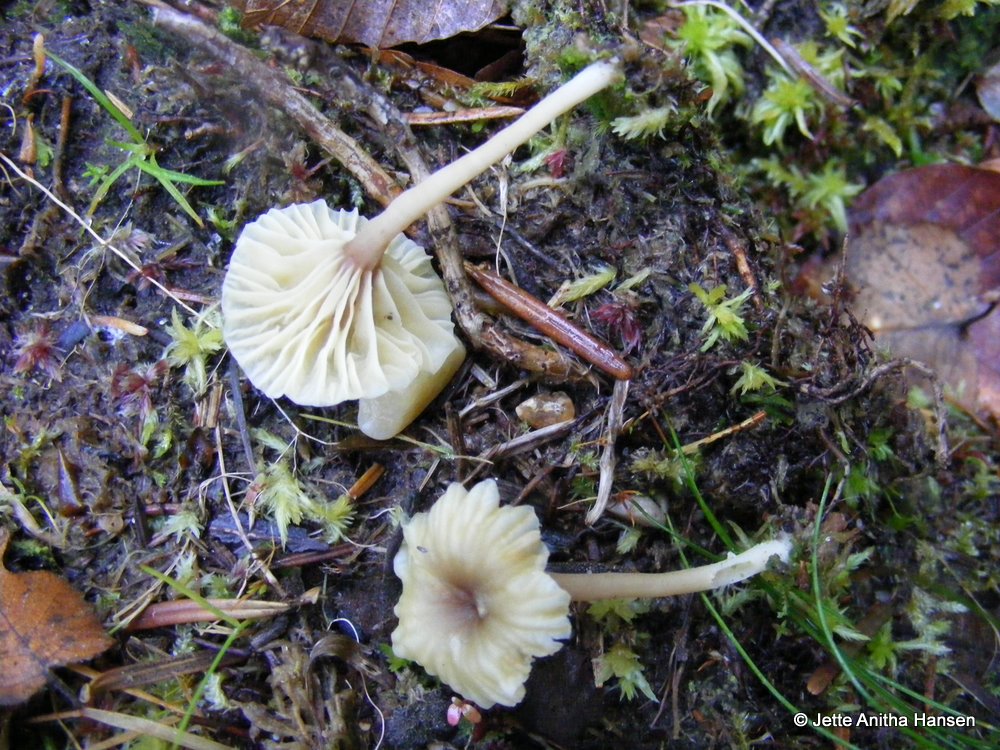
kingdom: Fungi
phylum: Basidiomycota
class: Agaricomycetes
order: Agaricales
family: Hygrophoraceae
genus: Lichenomphalia
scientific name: Lichenomphalia umbellifera
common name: tørve-lavhat
